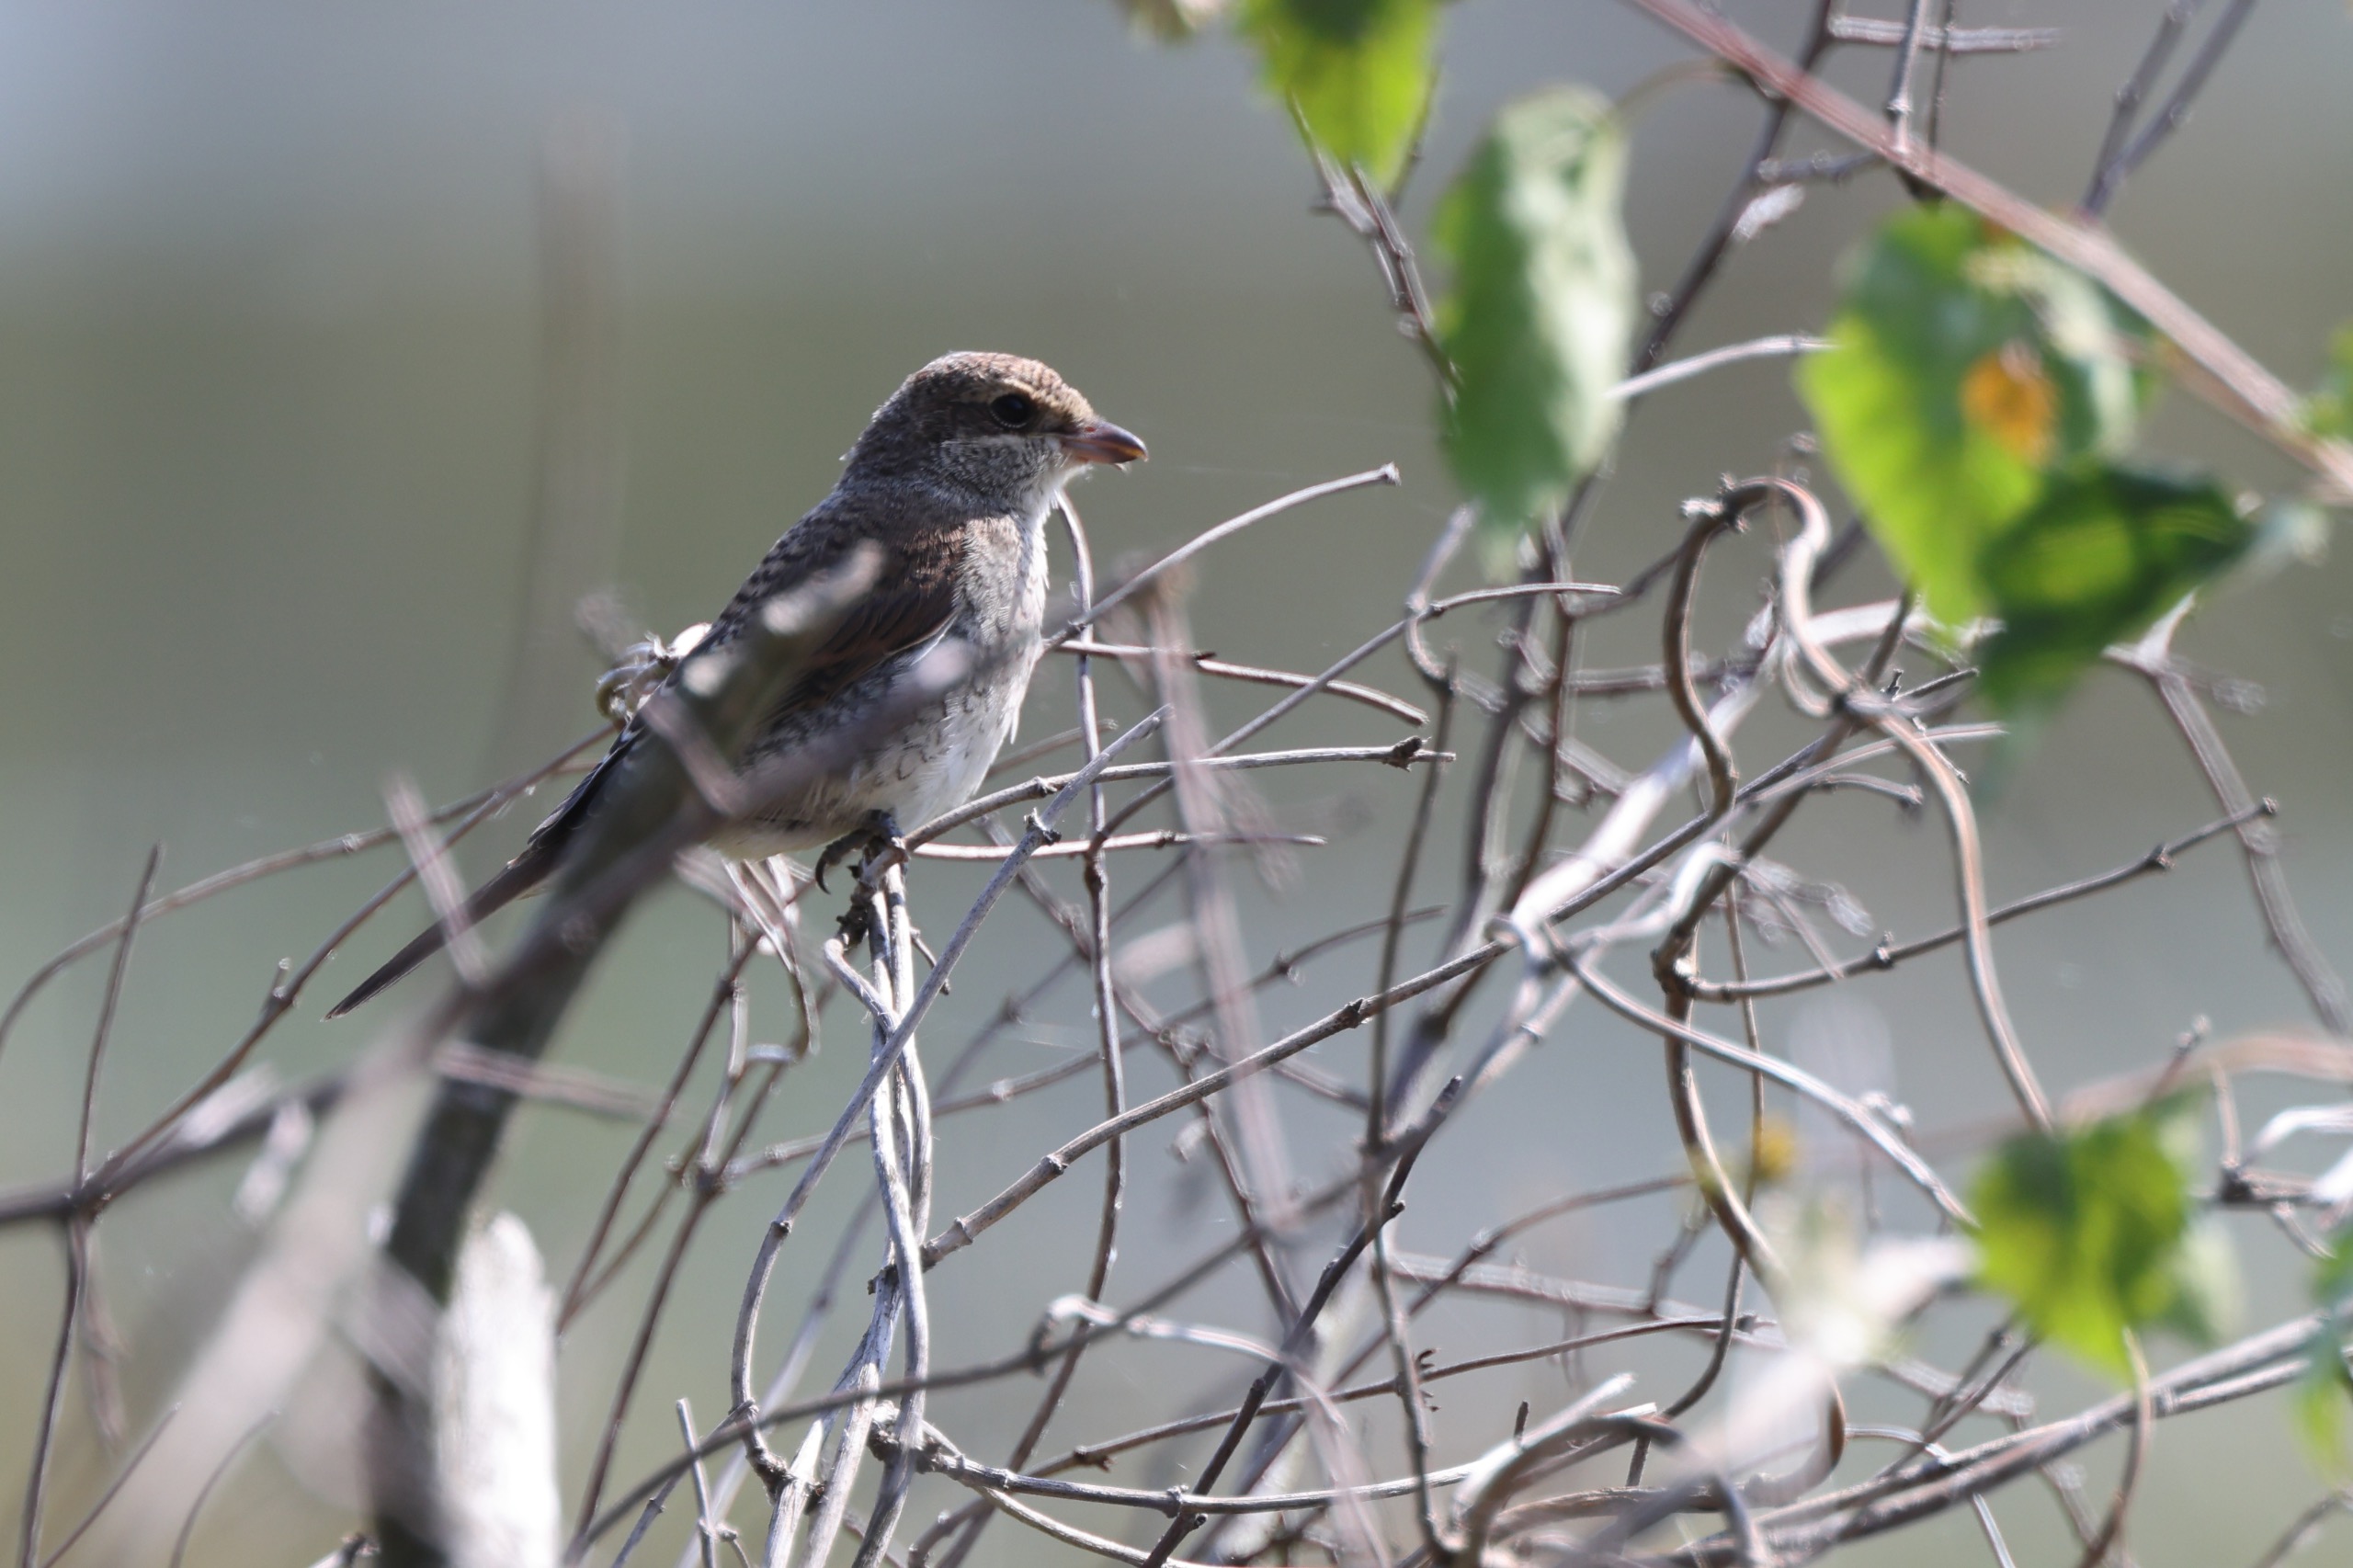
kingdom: Animalia
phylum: Chordata
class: Aves
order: Passeriformes
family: Laniidae
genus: Lanius
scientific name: Lanius collurio
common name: Rødrygget tornskade
